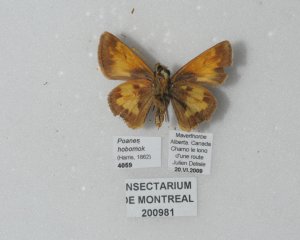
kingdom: Animalia
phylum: Arthropoda
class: Insecta
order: Lepidoptera
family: Hesperiidae
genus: Lon
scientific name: Lon hobomok
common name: Hobomok Skipper
